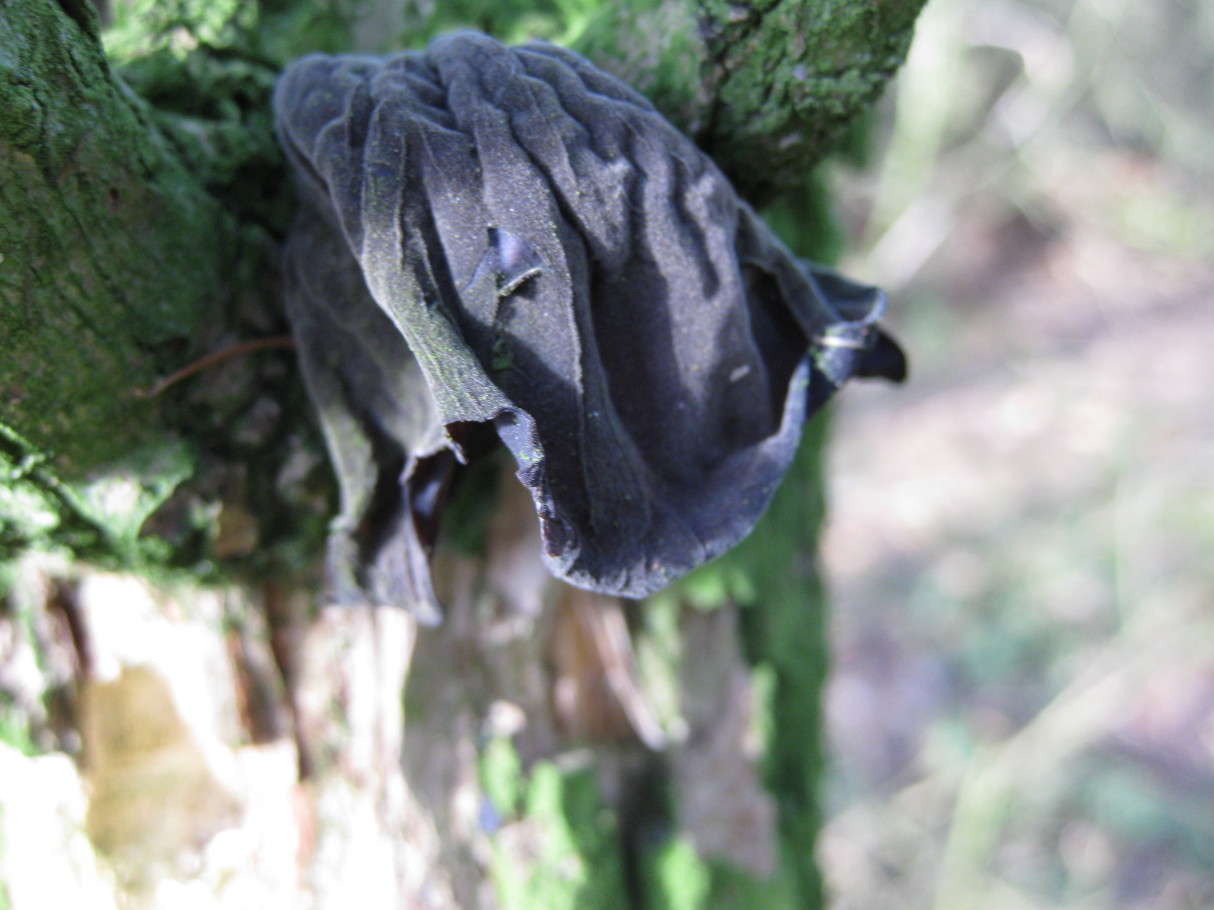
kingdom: Fungi
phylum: Basidiomycota
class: Agaricomycetes
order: Auriculariales
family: Auriculariaceae
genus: Auricularia
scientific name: Auricularia auricula-judae
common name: almindelig judasøre
